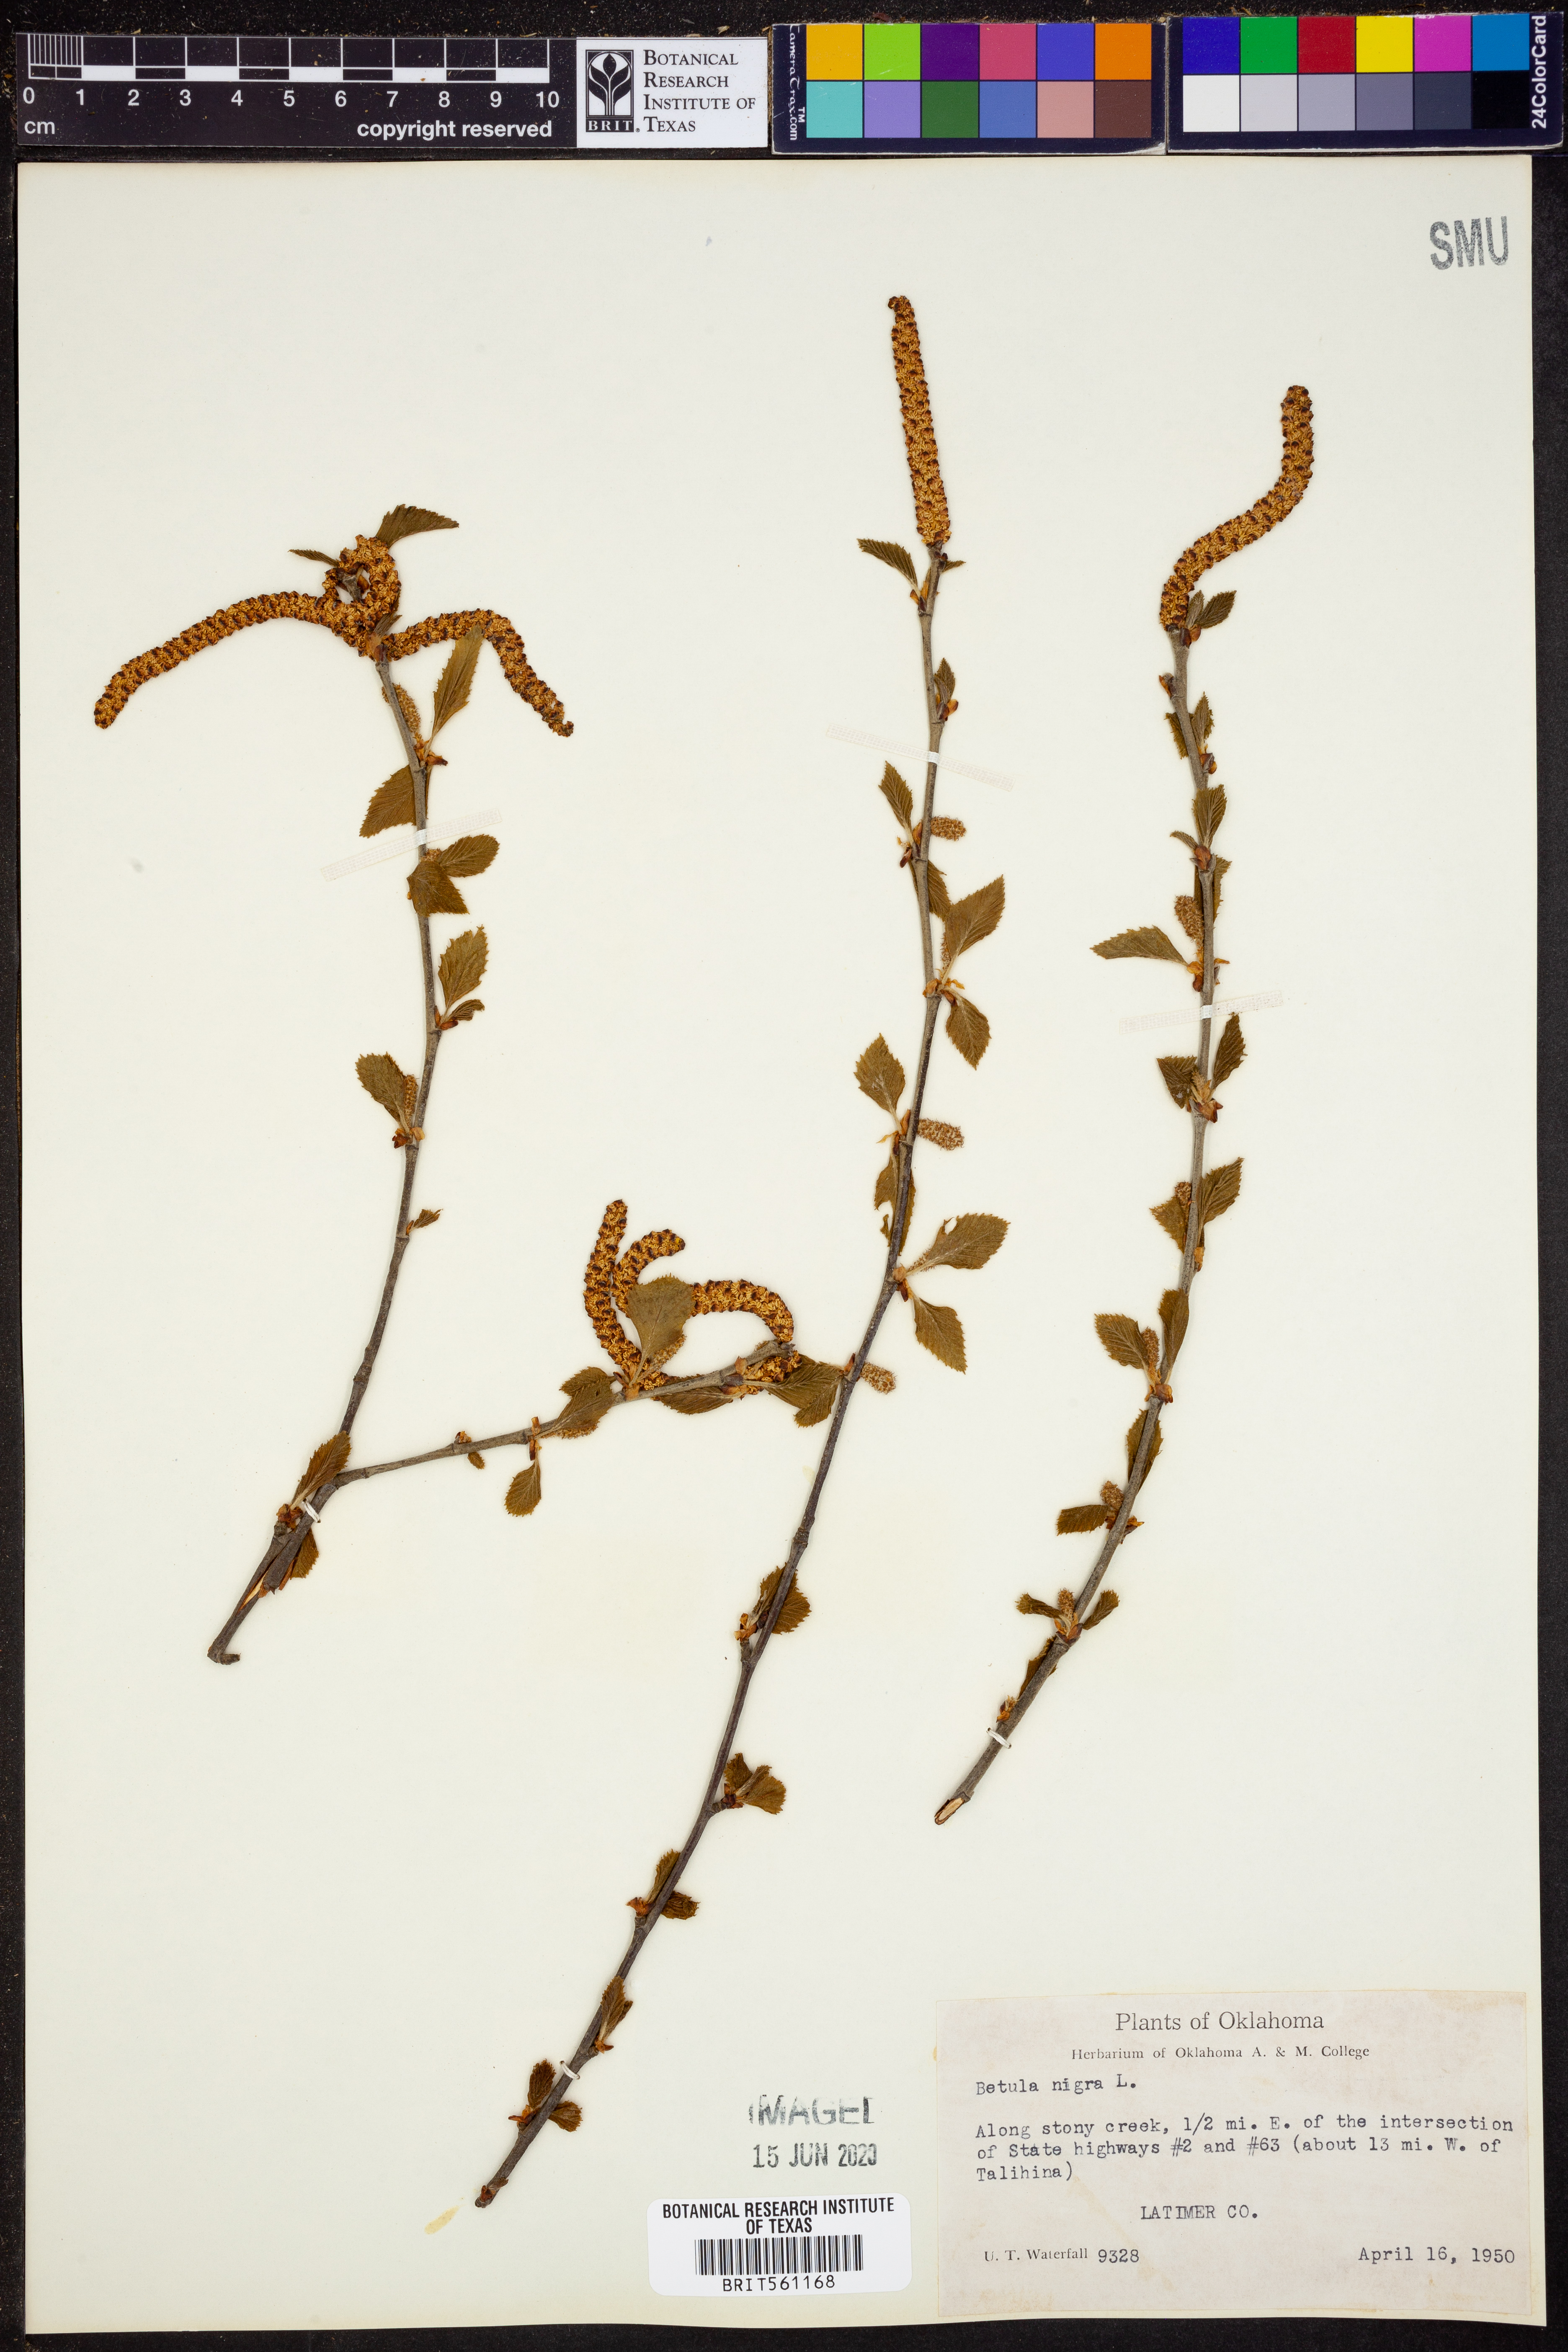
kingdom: Plantae
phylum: Tracheophyta
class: Magnoliopsida
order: Fagales
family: Betulaceae
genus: Betula
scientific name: Betula nigra
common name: Black birch
